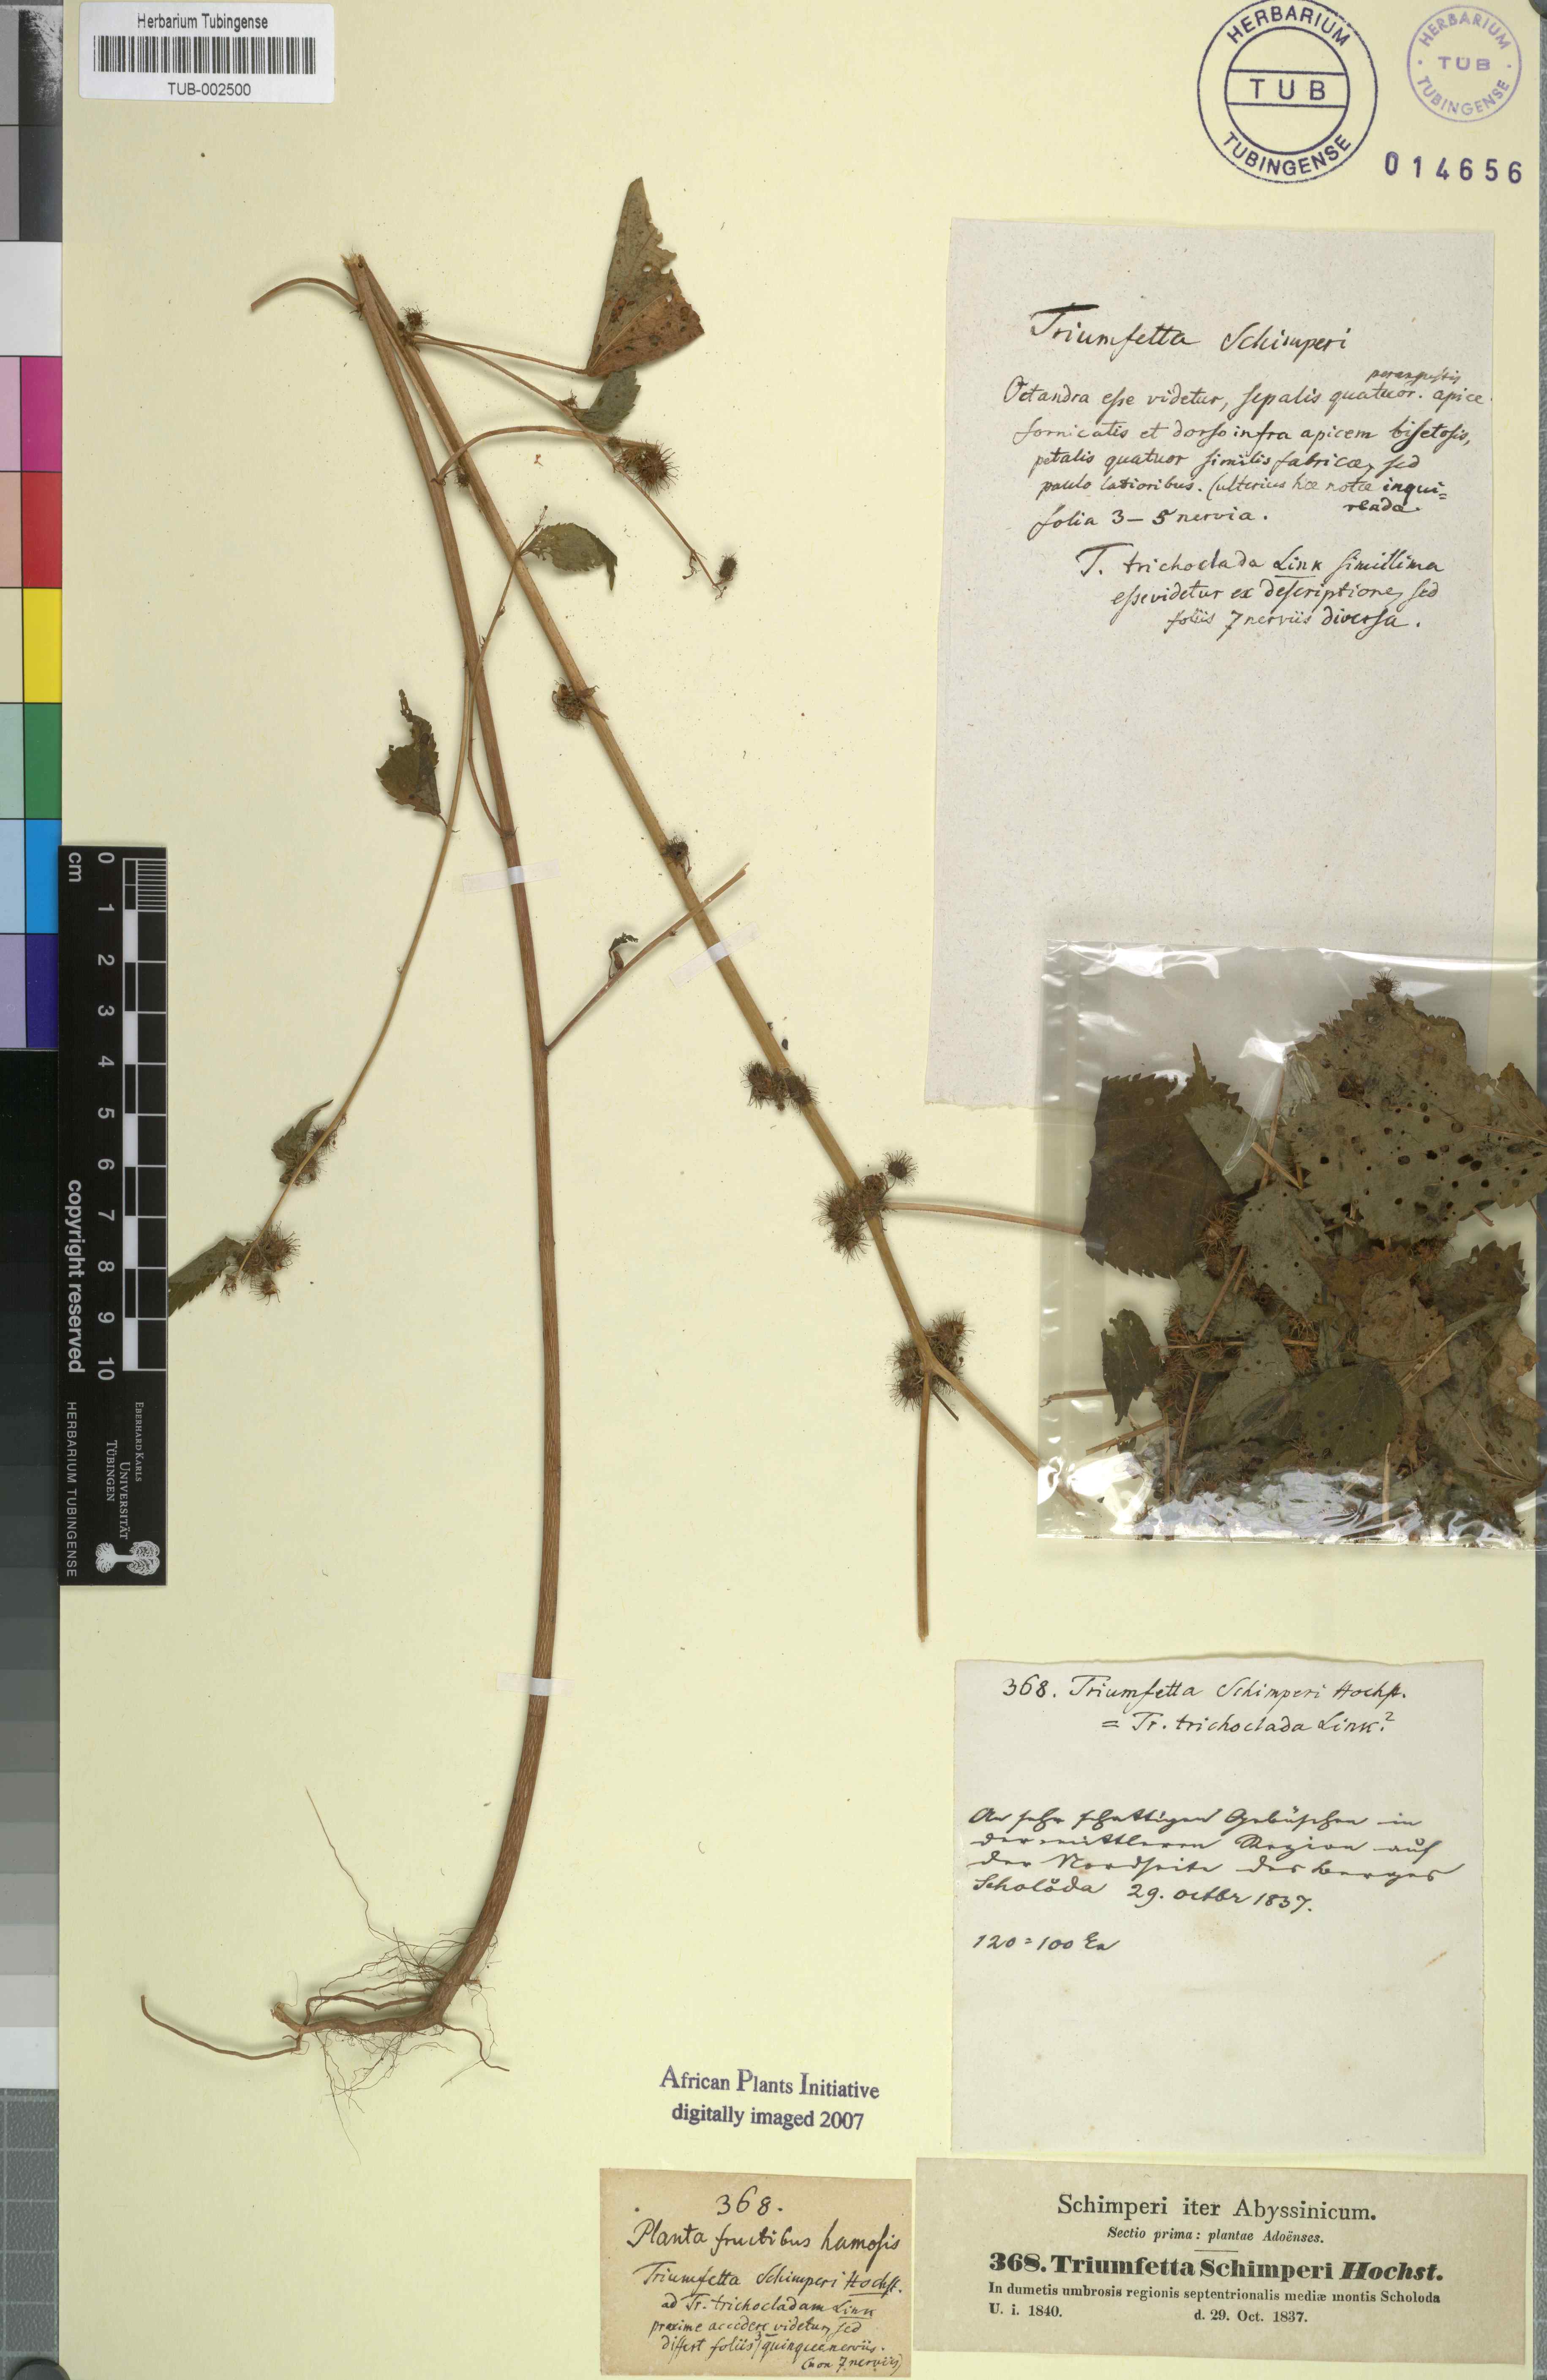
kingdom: Plantae
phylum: Tracheophyta
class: Magnoliopsida
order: Malvales
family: Malvaceae
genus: Triumfetta
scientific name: Triumfetta annua
